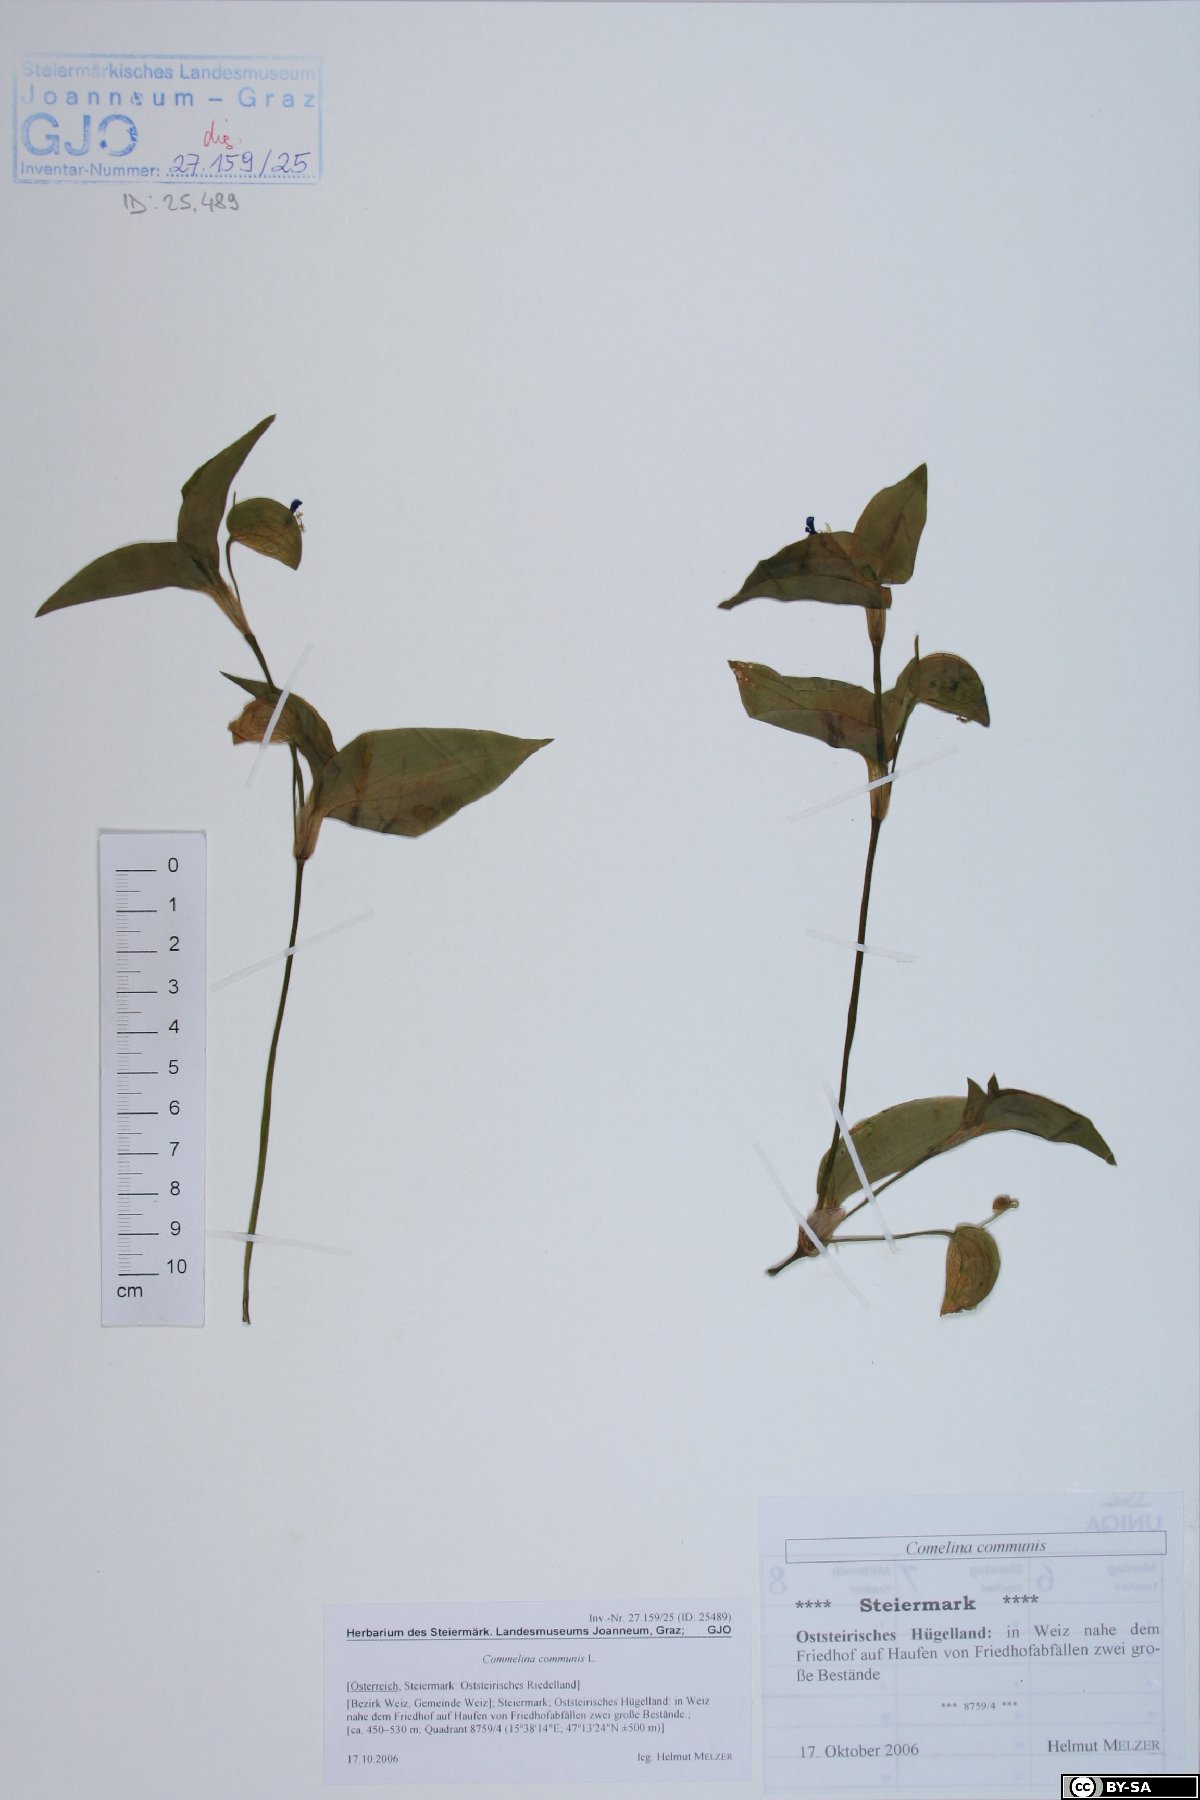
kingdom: Plantae
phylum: Tracheophyta
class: Liliopsida
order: Commelinales
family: Commelinaceae
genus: Commelina
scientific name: Commelina communis
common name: Asiatic dayflower
